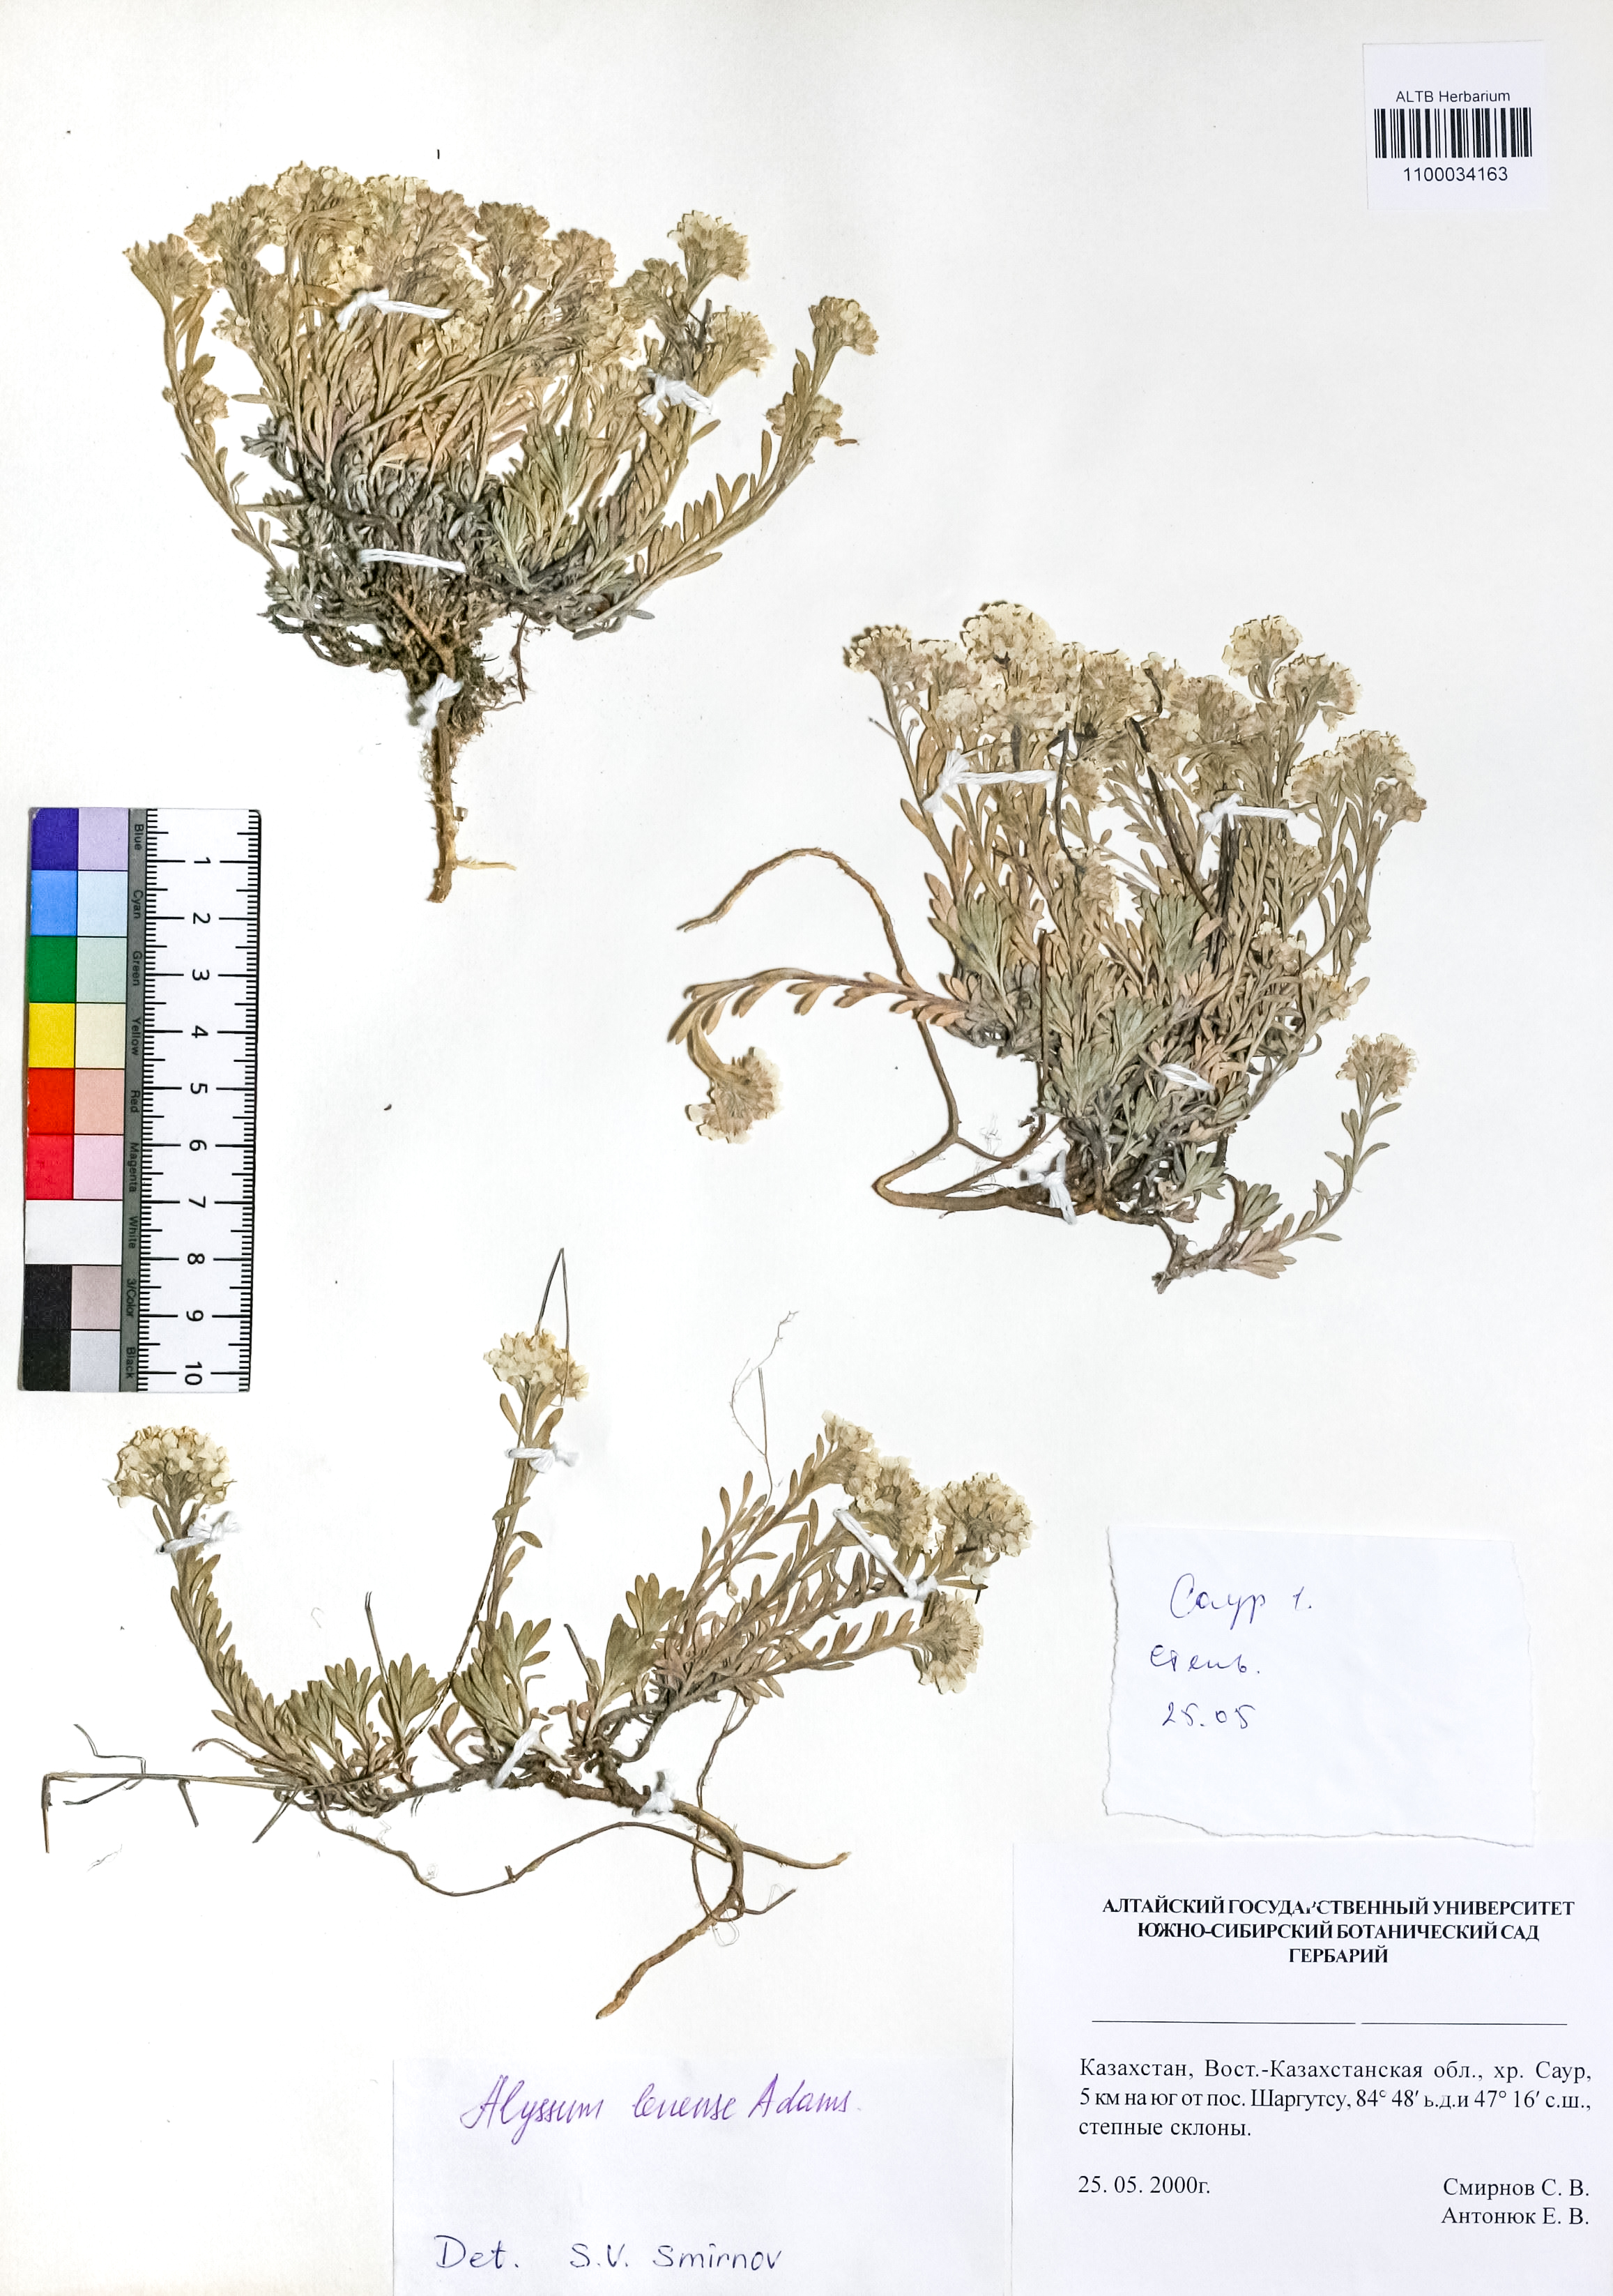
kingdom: Plantae
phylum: Tracheophyta
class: Magnoliopsida
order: Brassicales
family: Brassicaceae
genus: Alyssum
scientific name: Alyssum lenense
